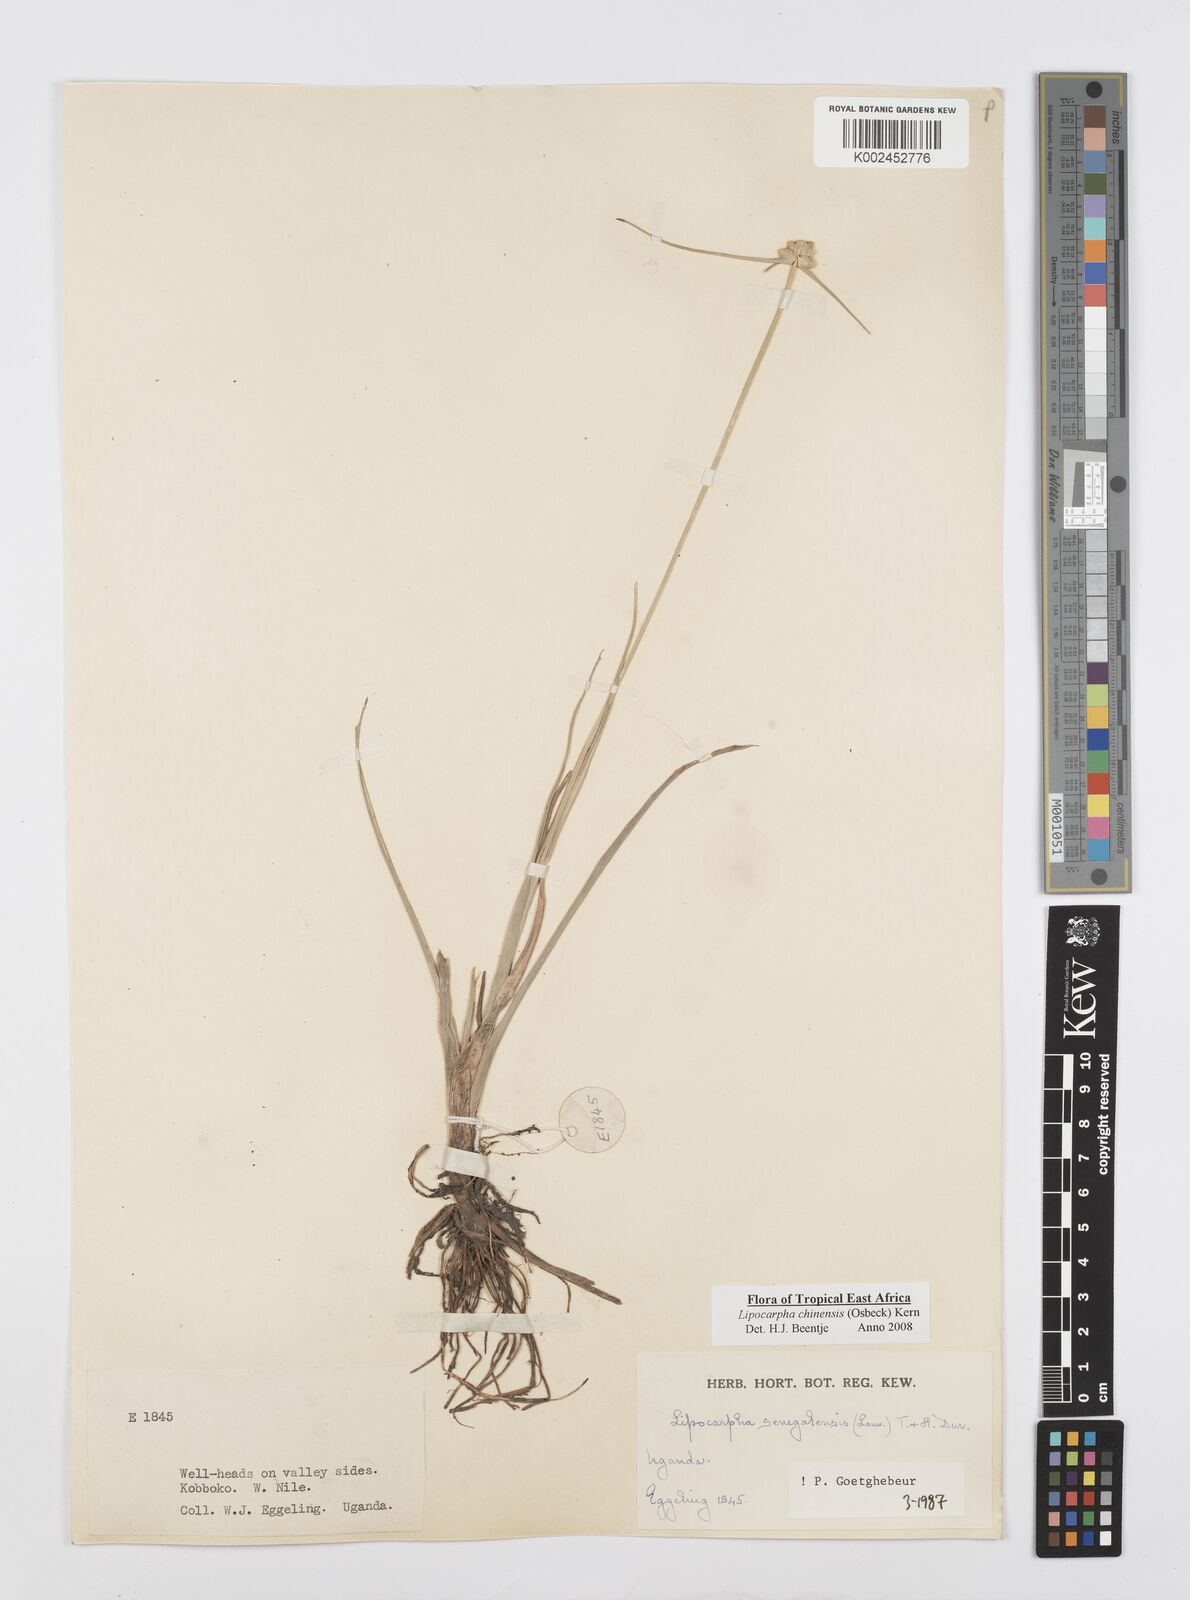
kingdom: Plantae
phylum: Tracheophyta
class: Liliopsida
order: Poales
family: Cyperaceae
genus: Cyperus
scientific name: Cyperus albescens
